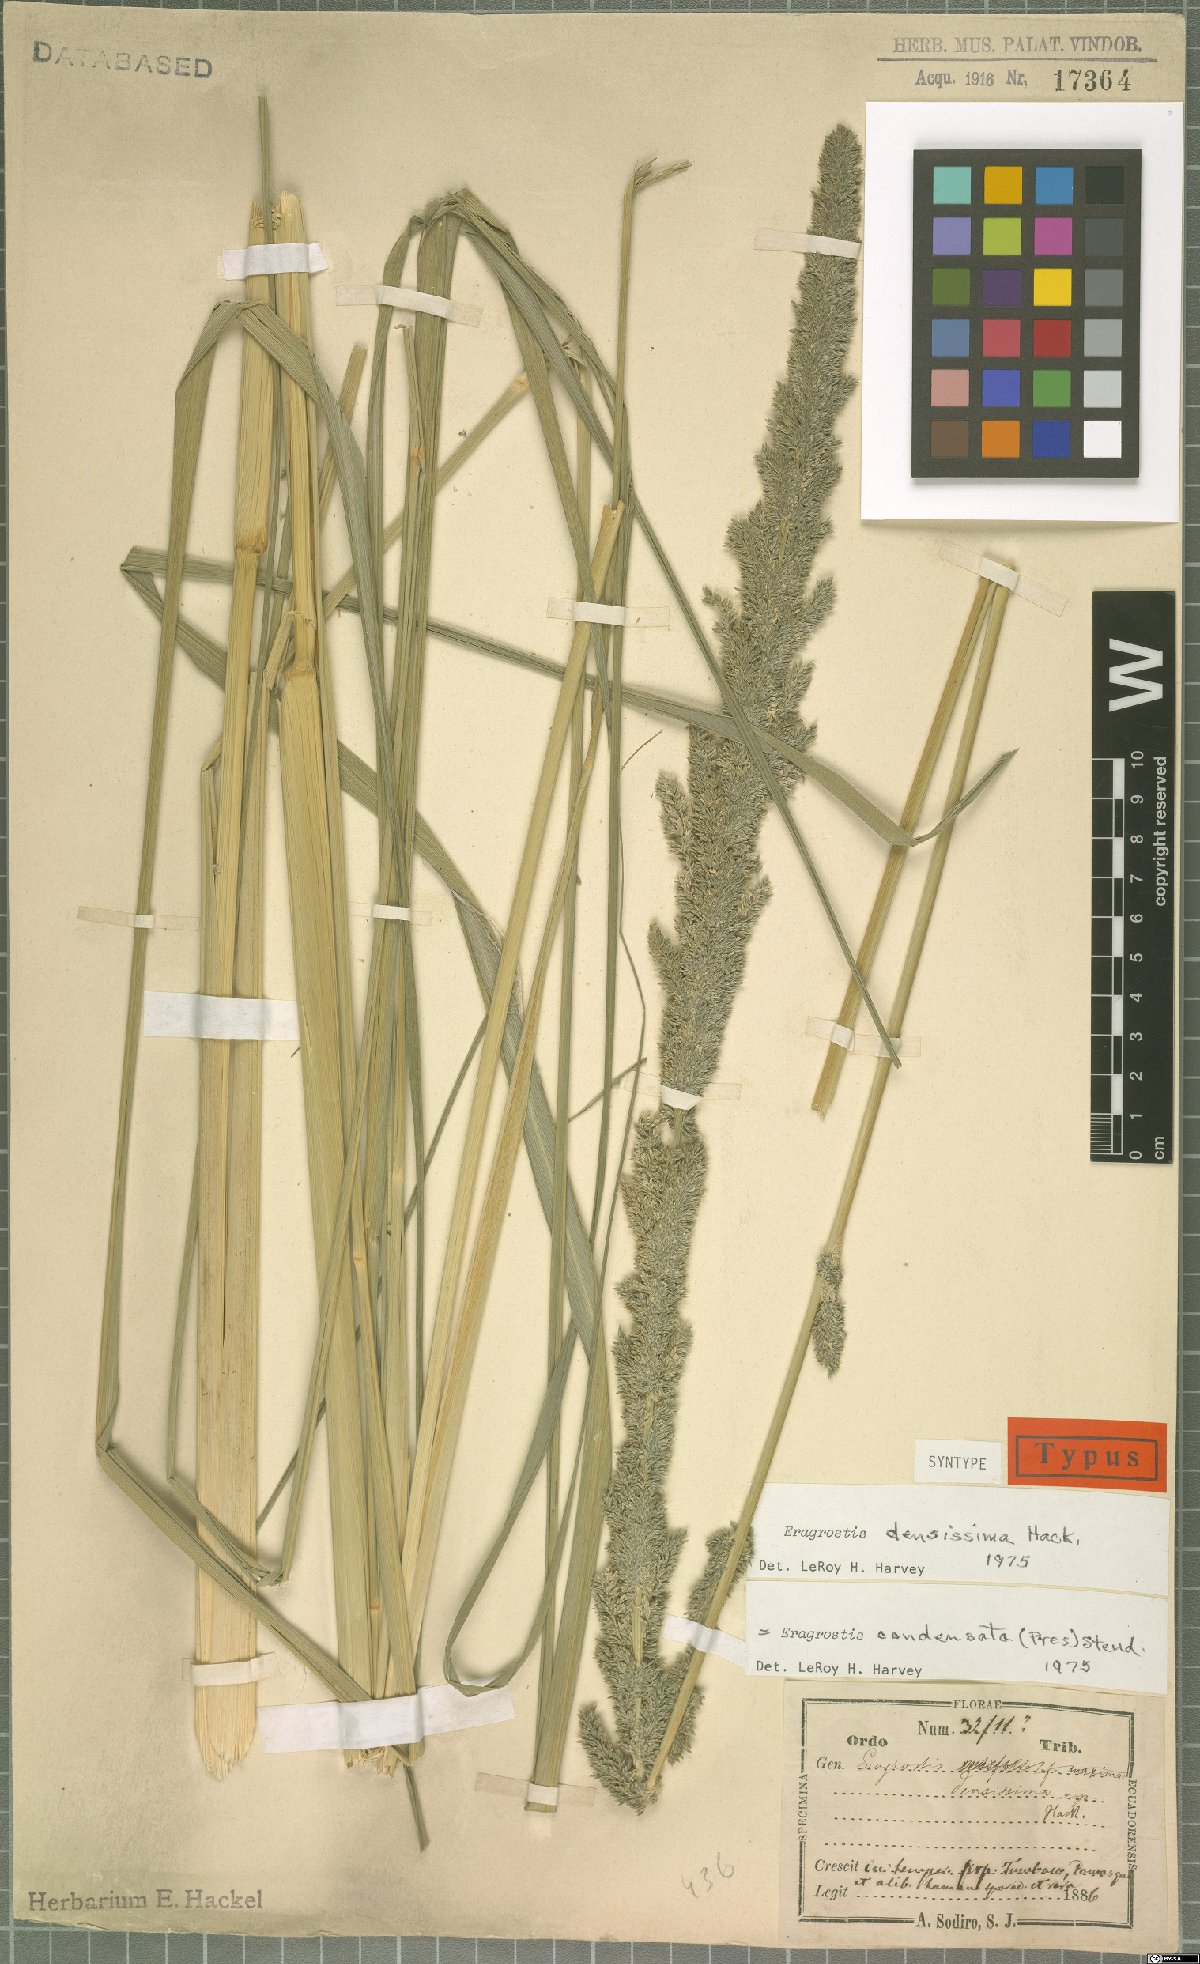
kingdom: Plantae
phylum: Tracheophyta
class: Liliopsida
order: Poales
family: Poaceae
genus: Eragrostis
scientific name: Eragrostis condensata
